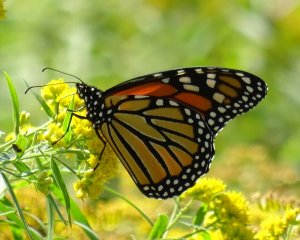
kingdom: Animalia
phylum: Arthropoda
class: Insecta
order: Lepidoptera
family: Nymphalidae
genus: Danaus
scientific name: Danaus plexippus
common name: Monarch
